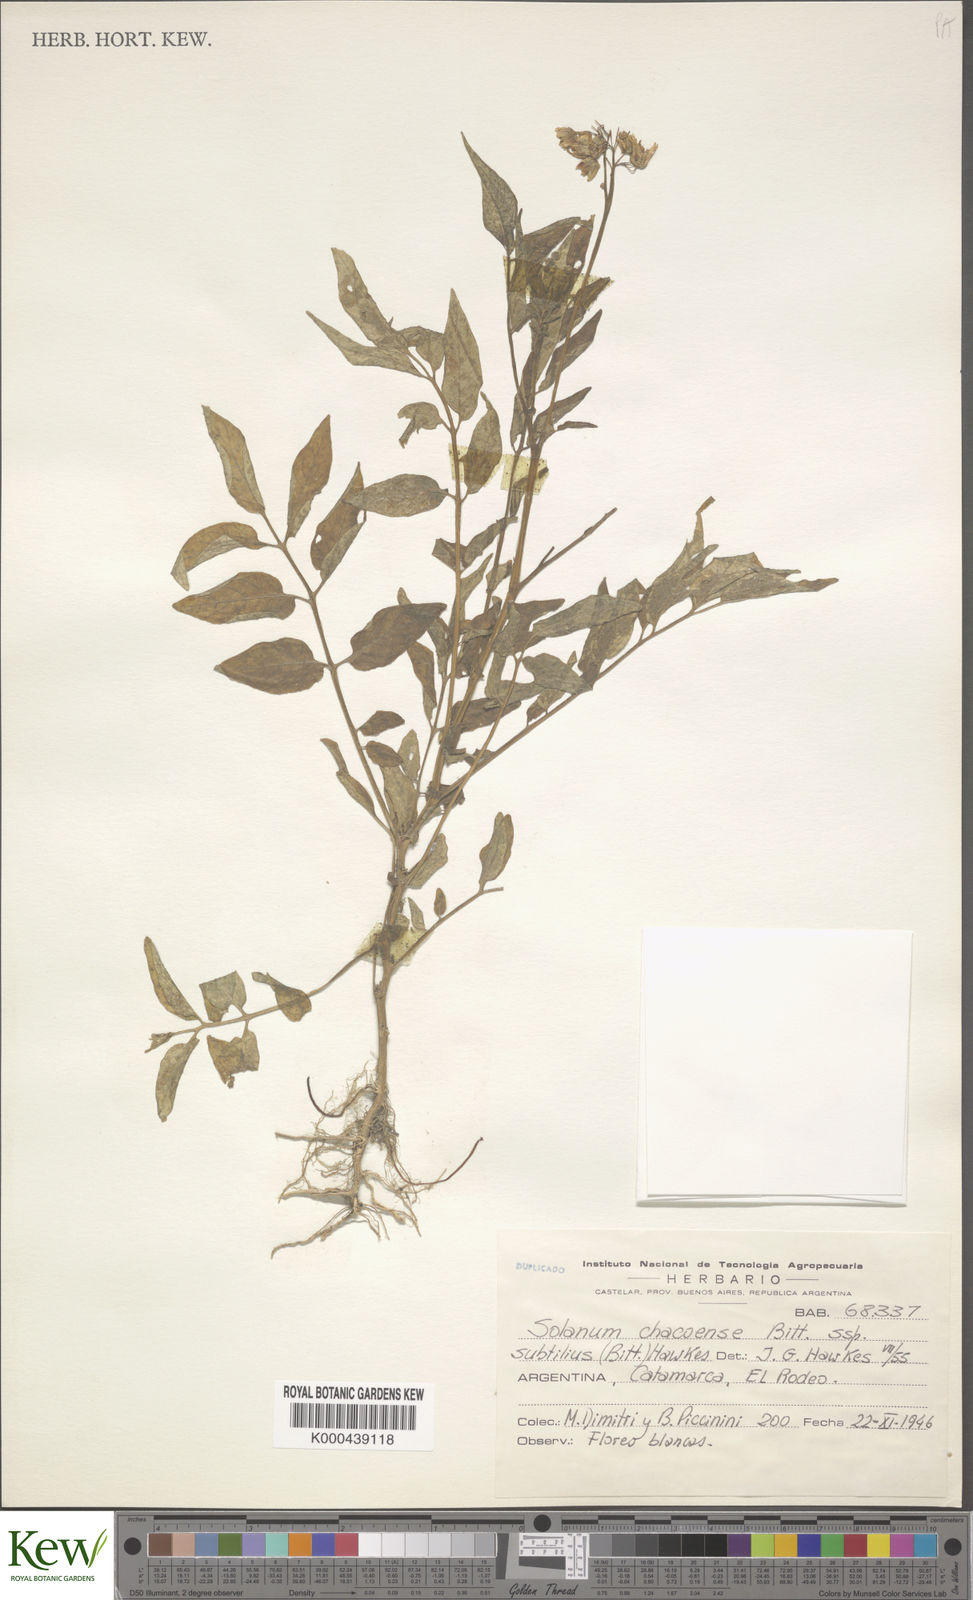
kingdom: Plantae
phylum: Tracheophyta
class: Magnoliopsida
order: Solanales
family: Solanaceae
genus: Solanum
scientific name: Solanum chacoense
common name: Chaco potato
